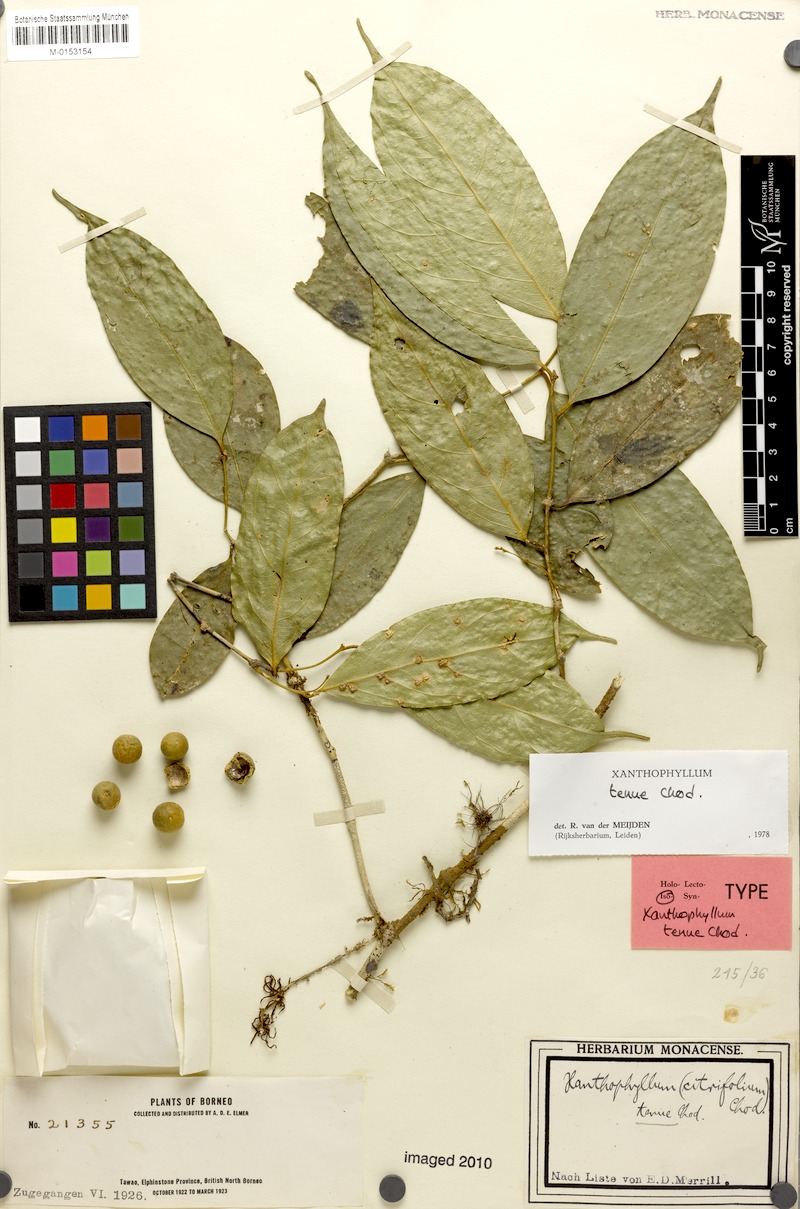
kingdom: Plantae
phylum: Tracheophyta
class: Magnoliopsida
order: Fabales
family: Polygalaceae
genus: Xanthophyllum
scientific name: Xanthophyllum tenue
